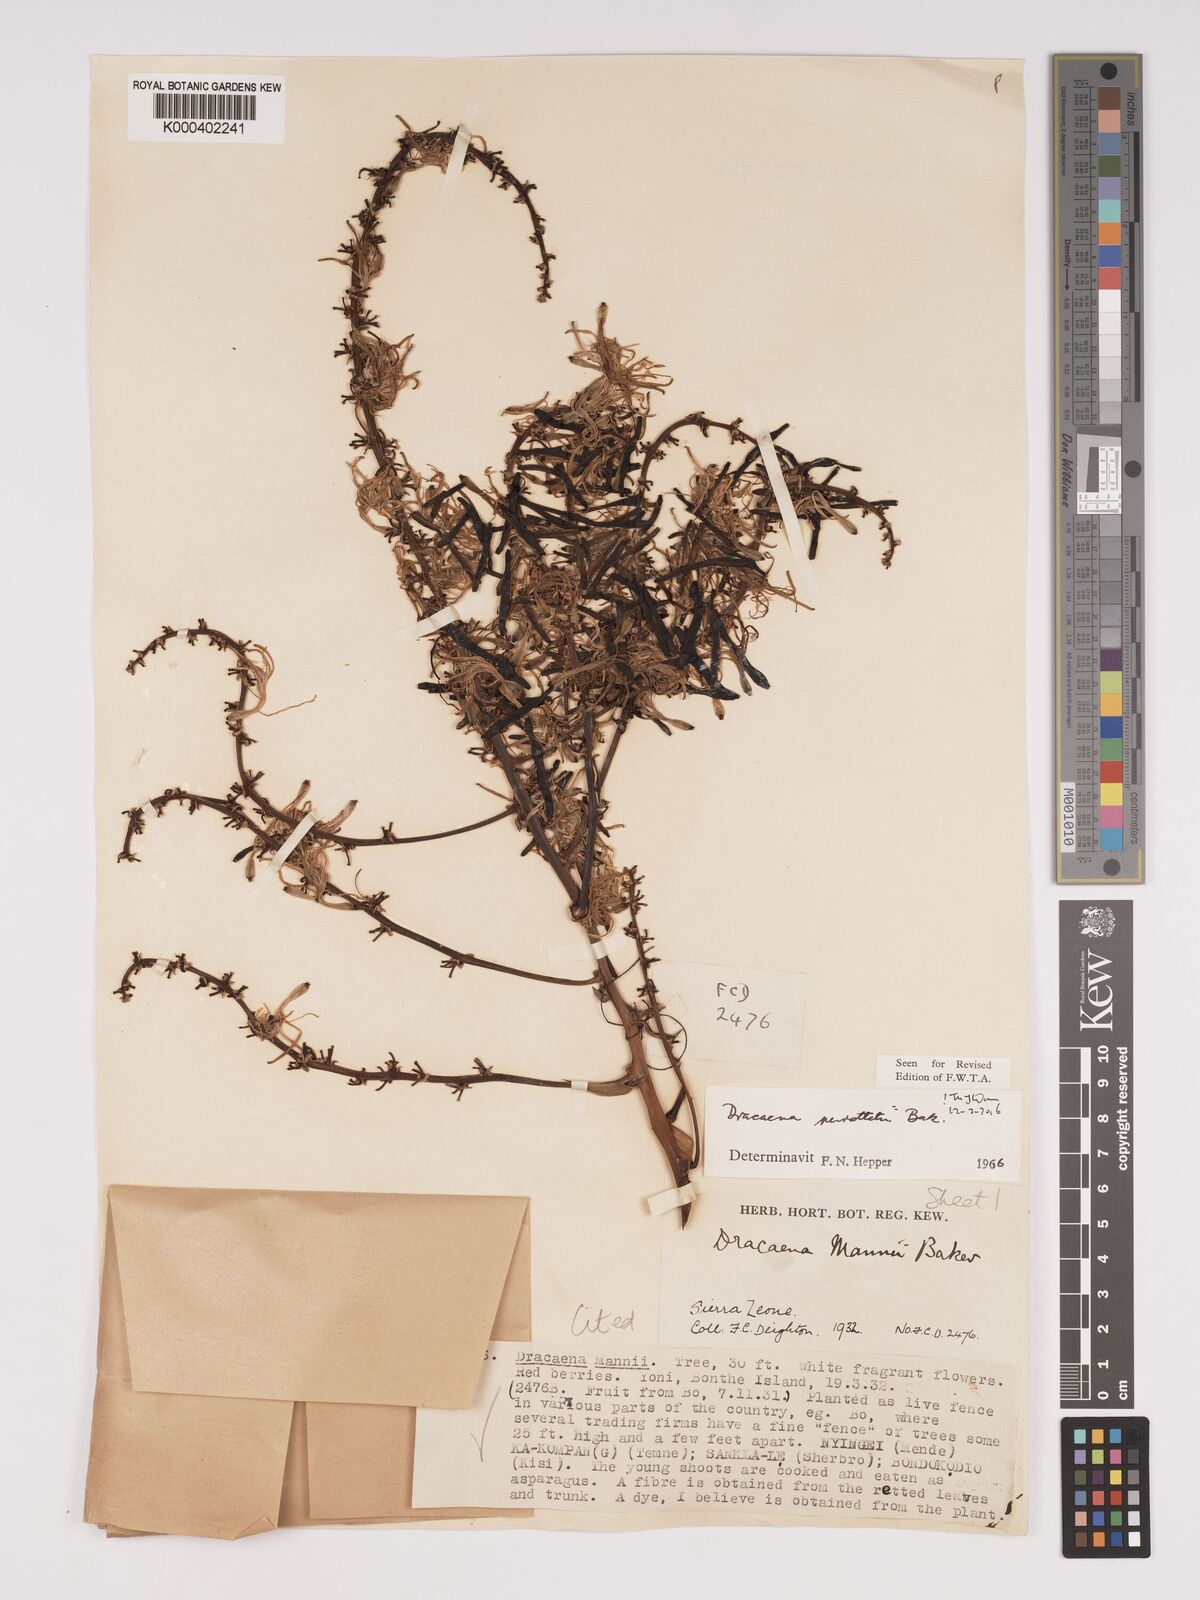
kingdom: Plantae
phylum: Tracheophyta
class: Liliopsida
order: Asparagales
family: Asparagaceae
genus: Dracaena
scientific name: Dracaena perrottetii
